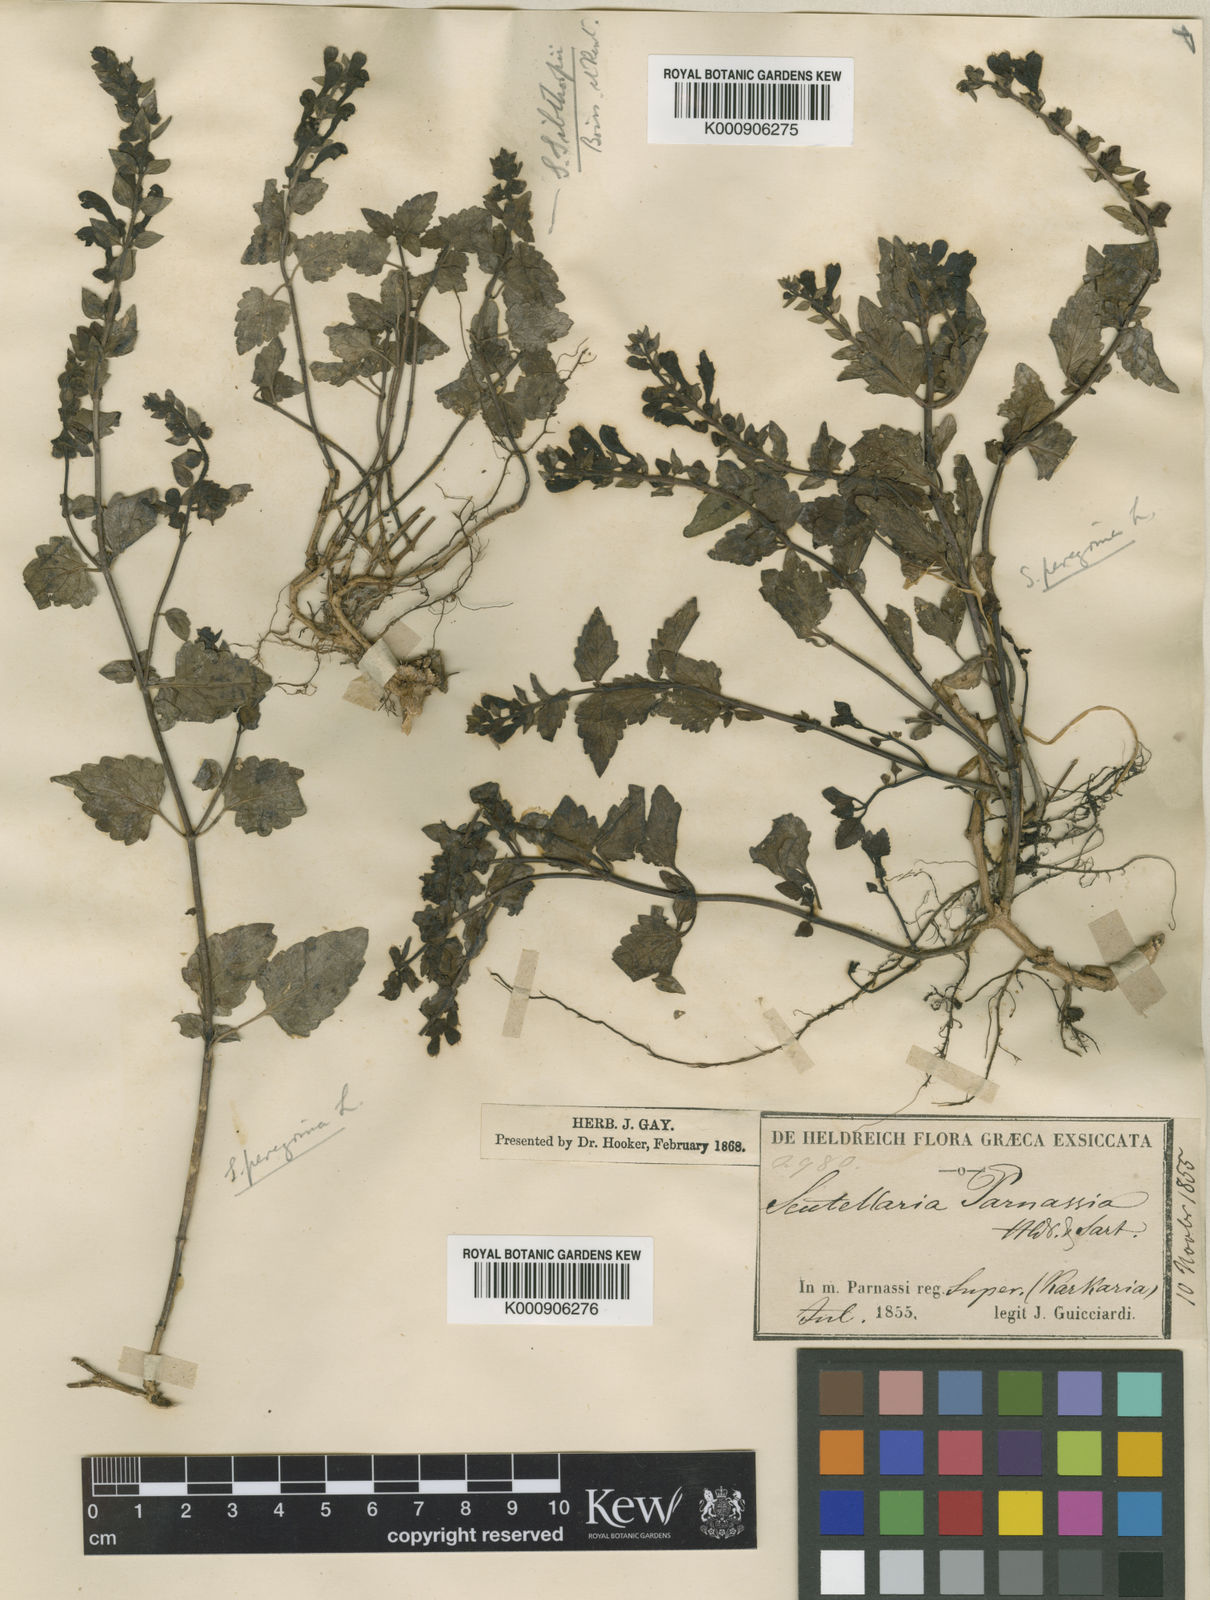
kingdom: Plantae
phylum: Tracheophyta
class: Magnoliopsida
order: Lamiales
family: Lamiaceae
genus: Scutellaria
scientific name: Scutellaria rubicunda
